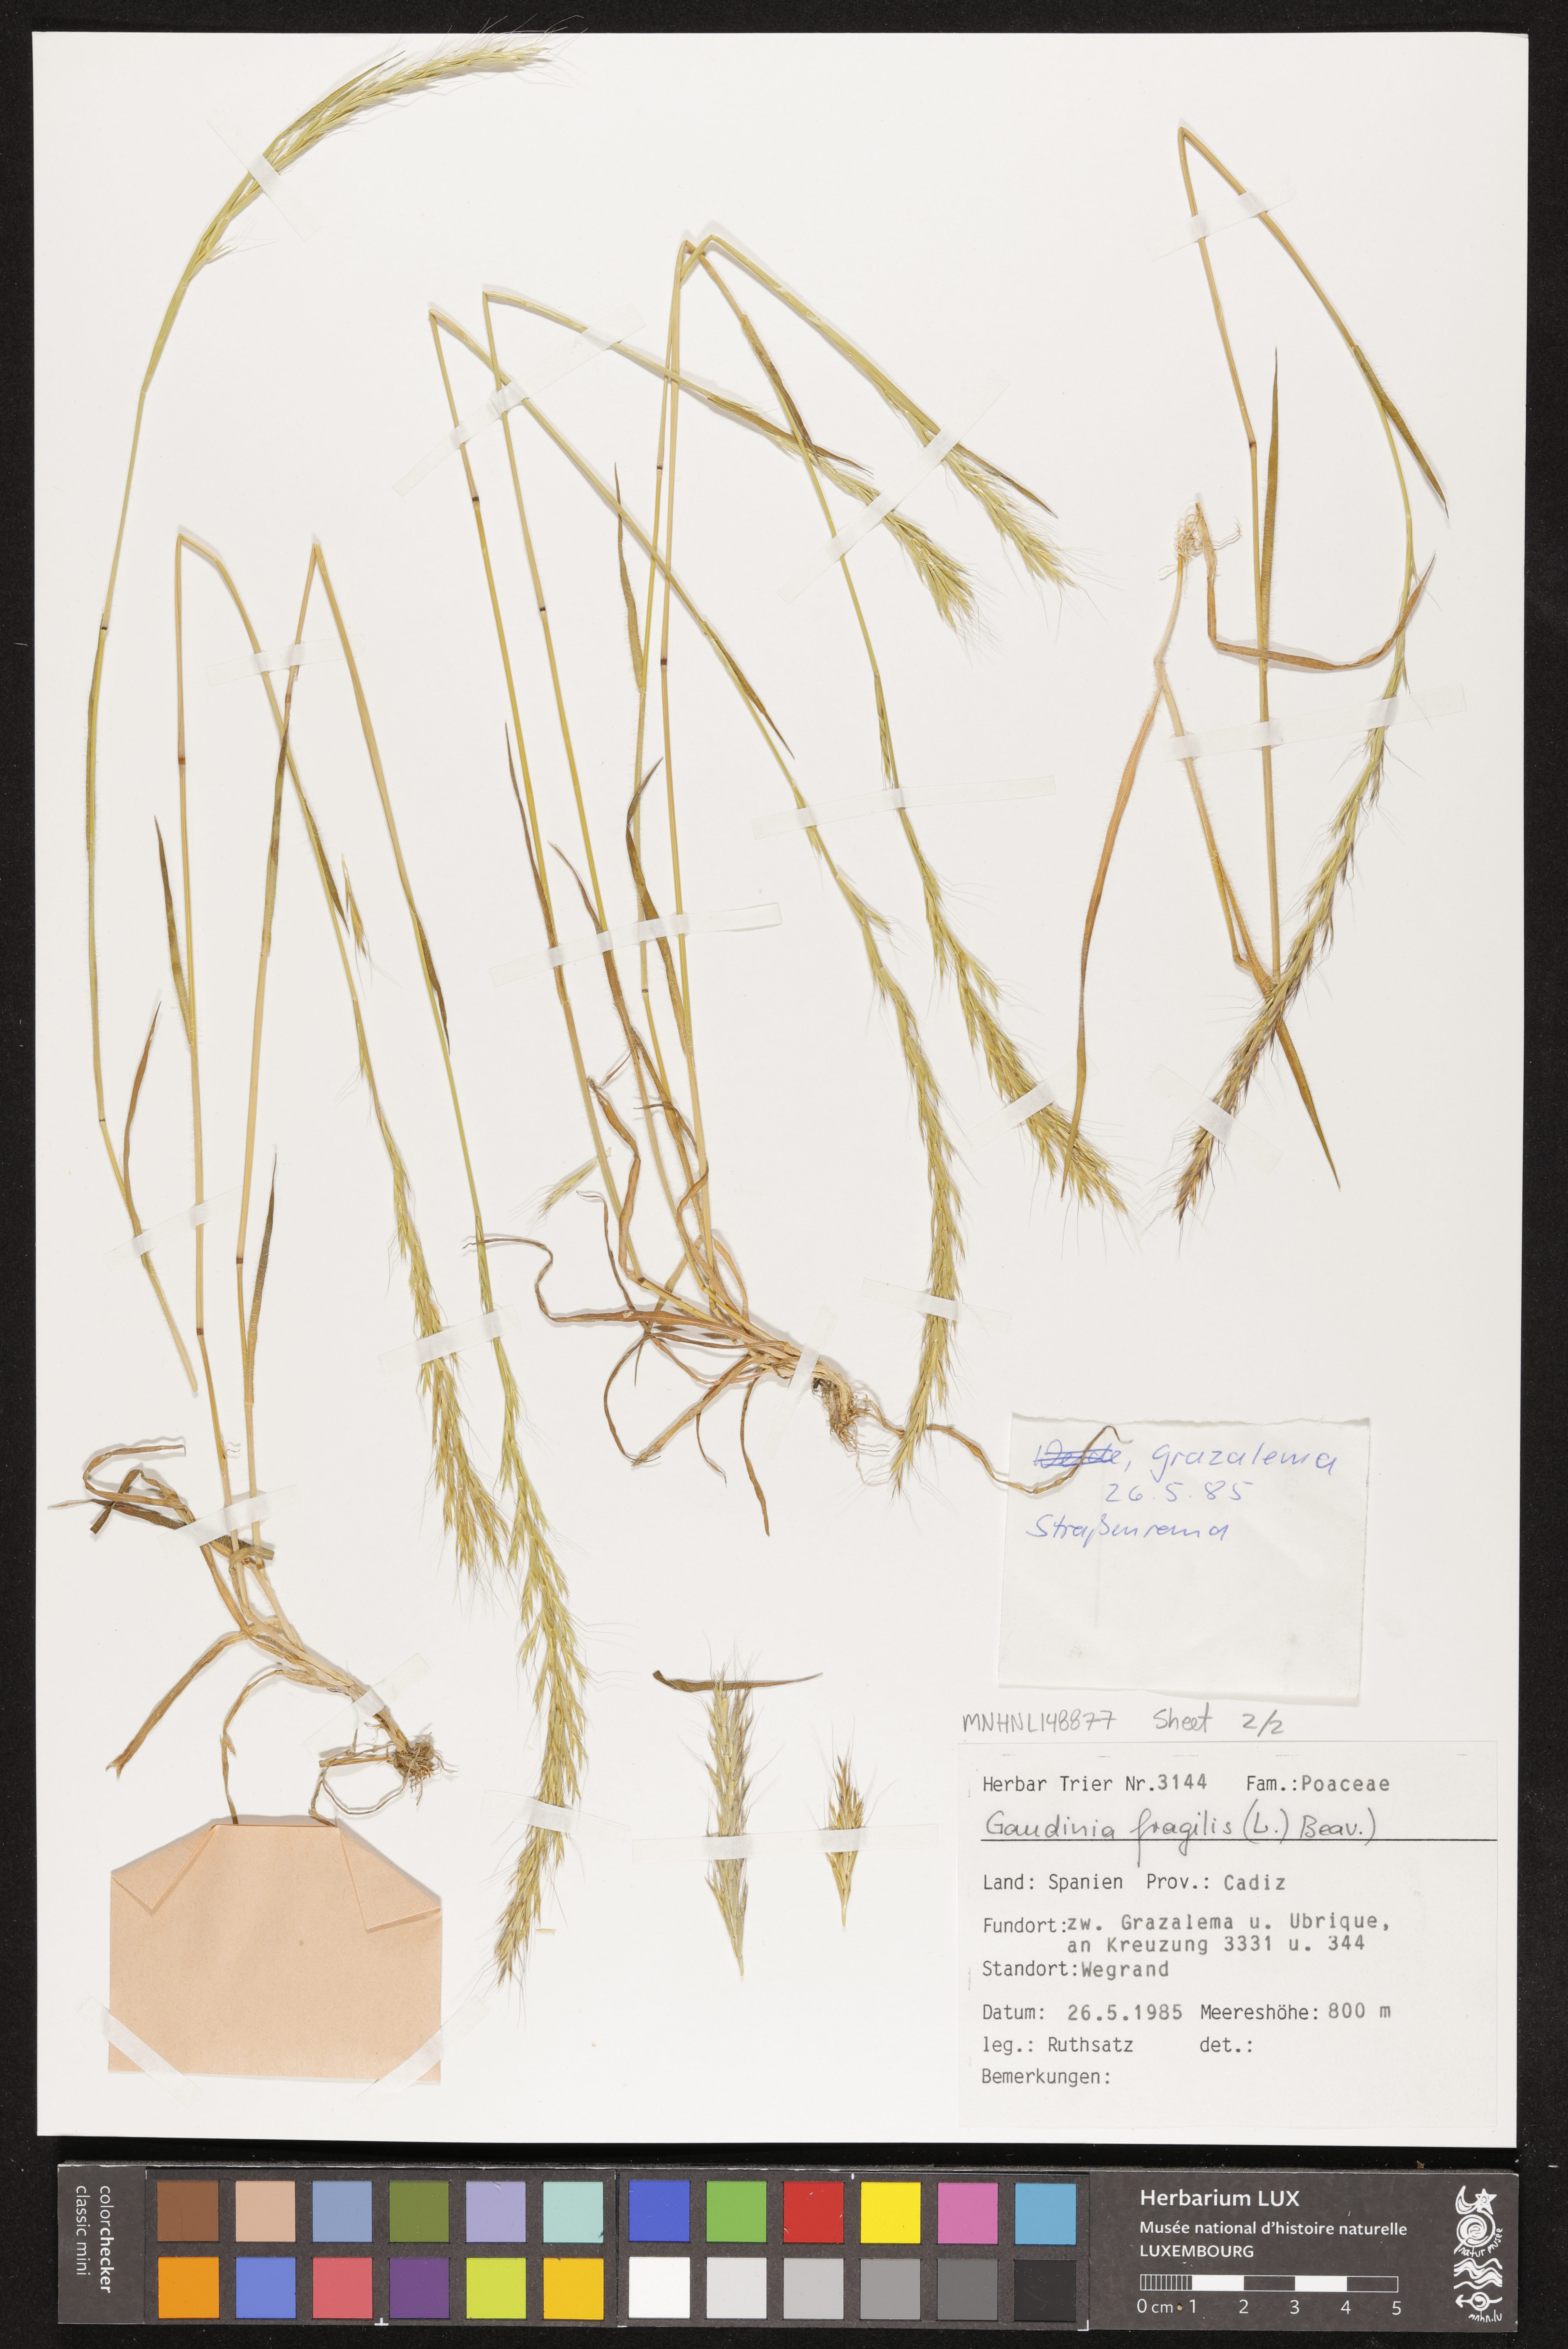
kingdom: Plantae
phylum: Tracheophyta
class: Liliopsida
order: Poales
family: Poaceae
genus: Gaudinia
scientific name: Gaudinia fragilis
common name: French oat-grass
